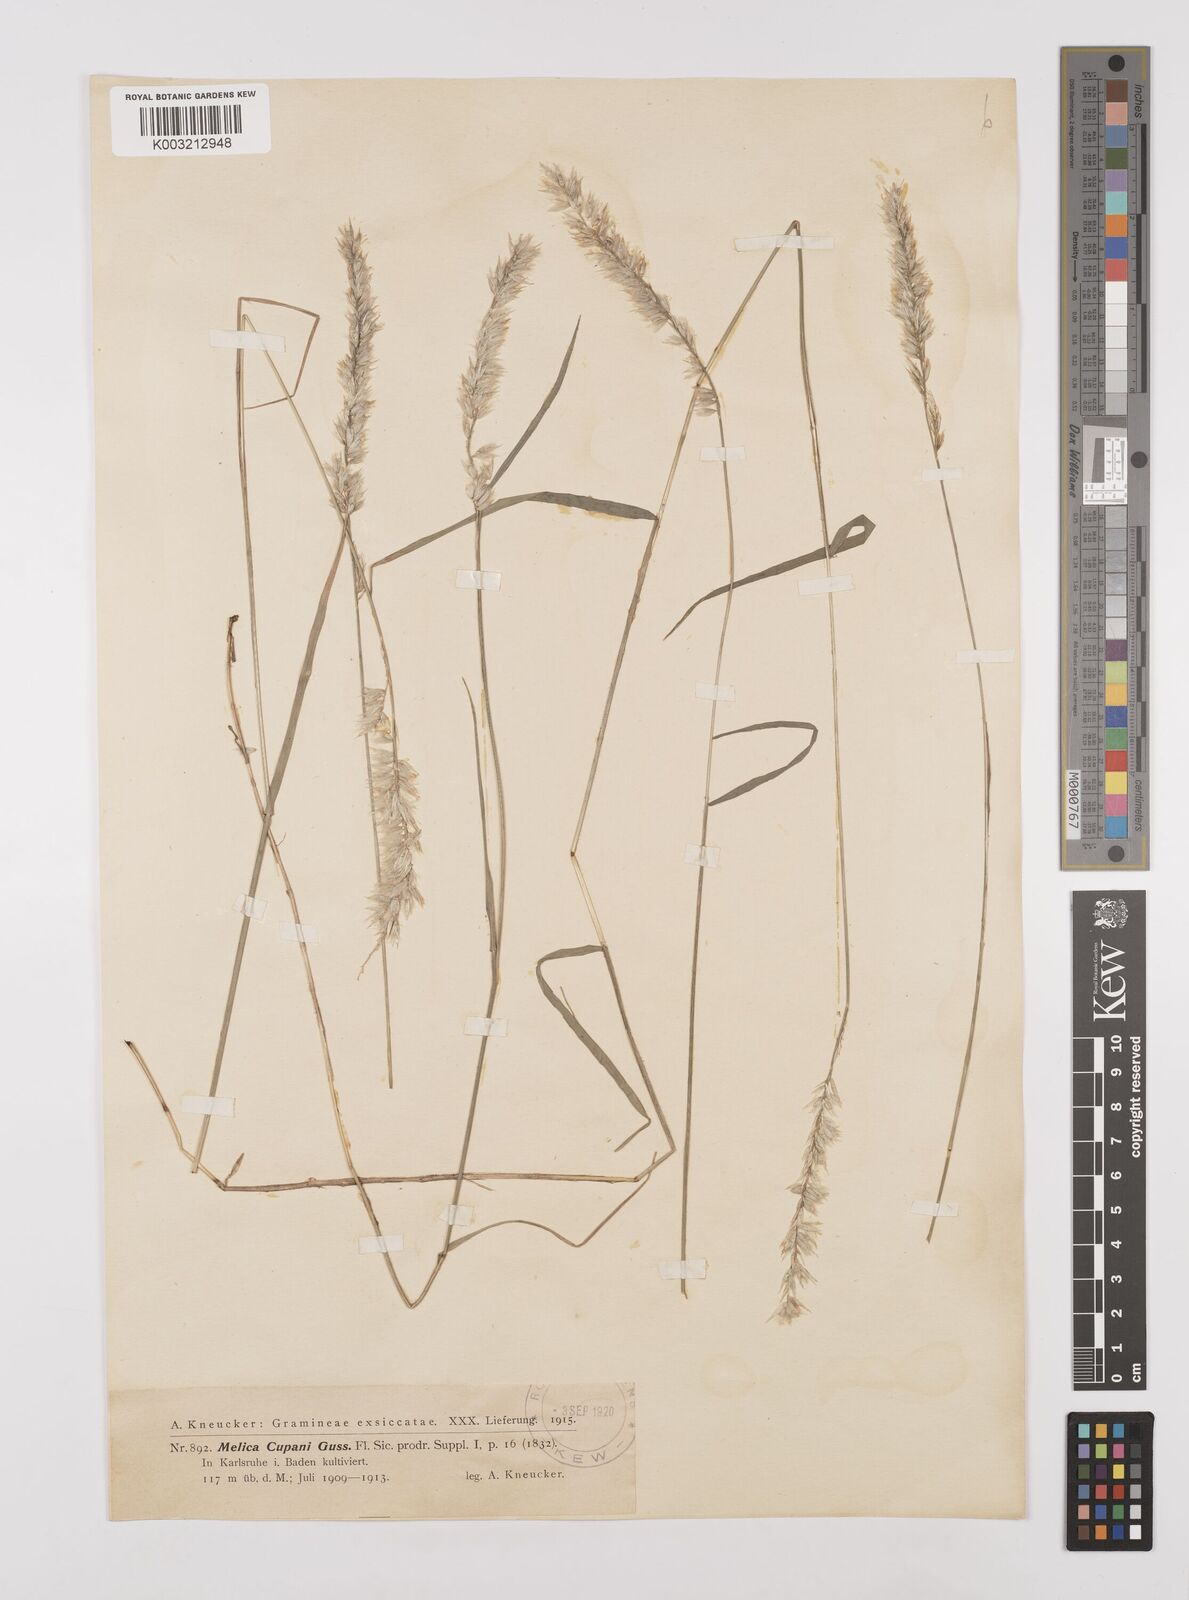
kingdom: Plantae
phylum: Tracheophyta
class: Liliopsida
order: Poales
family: Poaceae
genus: Melica
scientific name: Melica cupani
